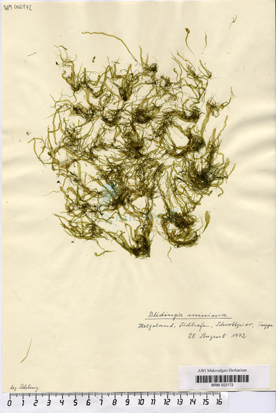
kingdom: Plantae
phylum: Chlorophyta
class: Ulvophyceae
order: Ulvales
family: Kornmanniaceae
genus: Blidingia
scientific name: Blidingia minima
